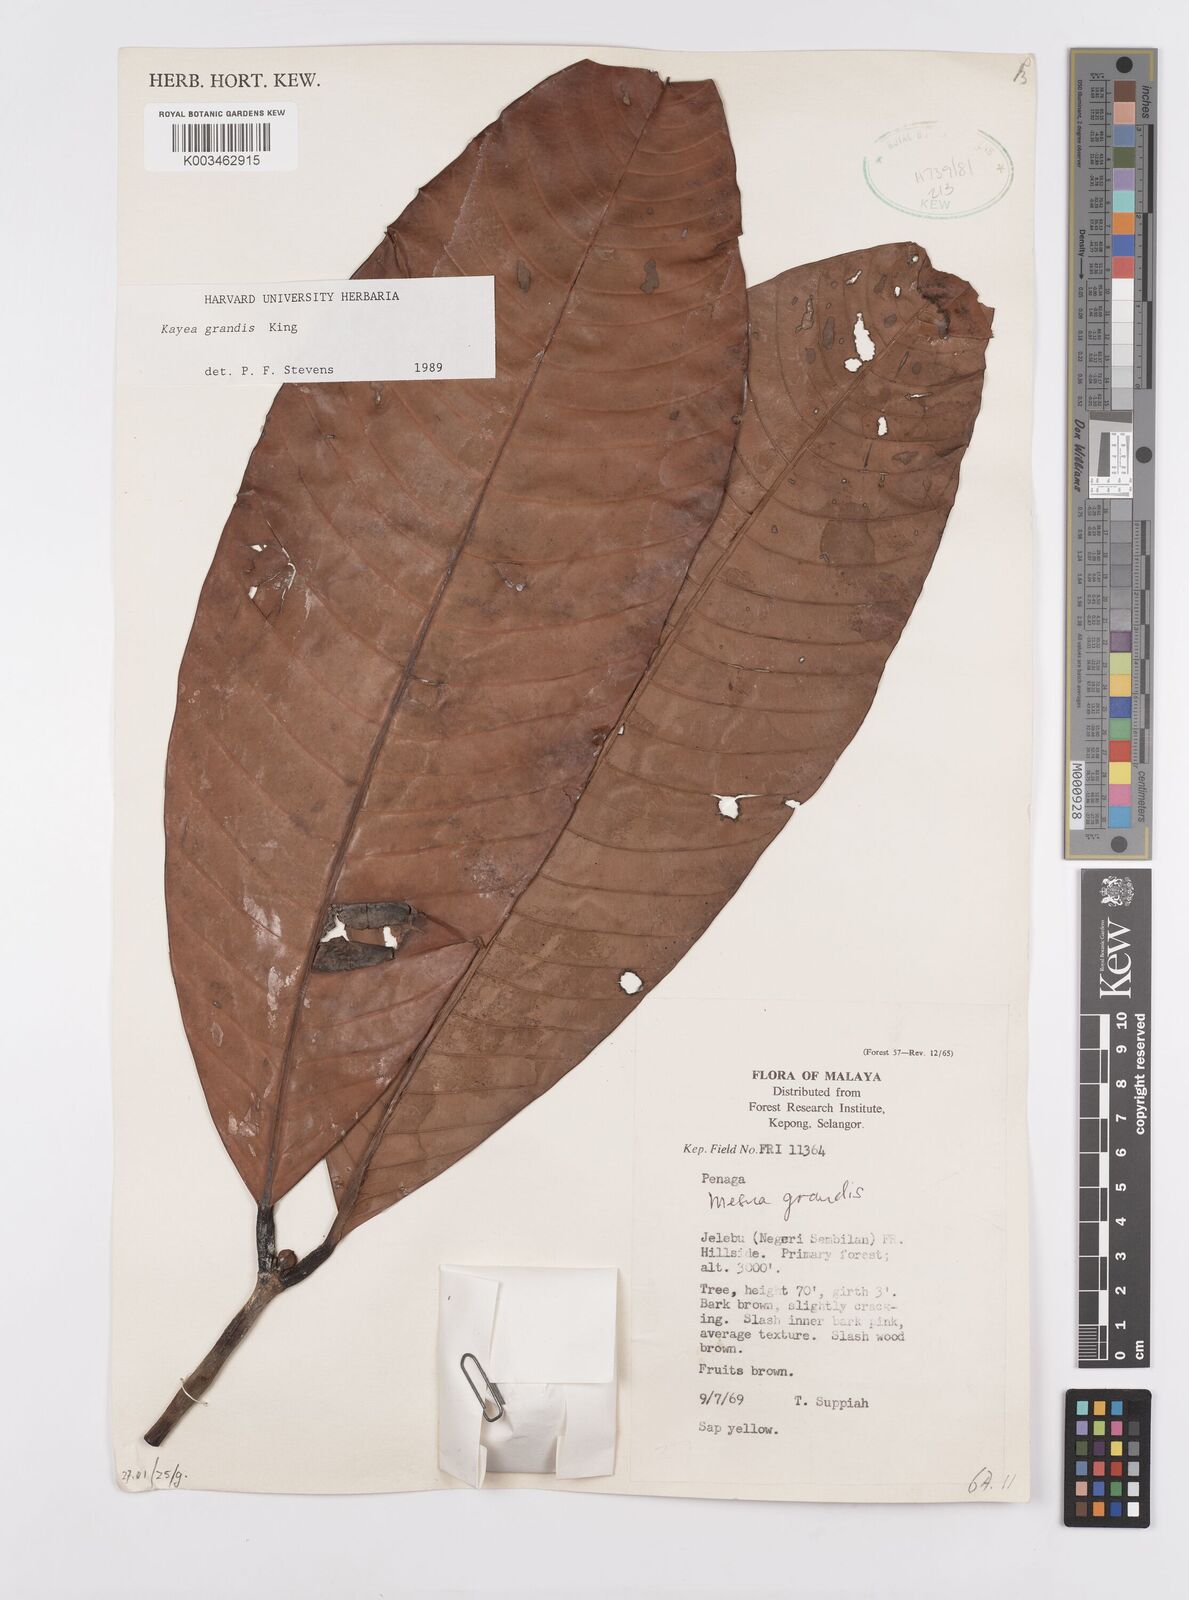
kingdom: Plantae
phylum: Tracheophyta
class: Magnoliopsida
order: Malpighiales
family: Calophyllaceae
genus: Kayea
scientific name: Kayea grandis
